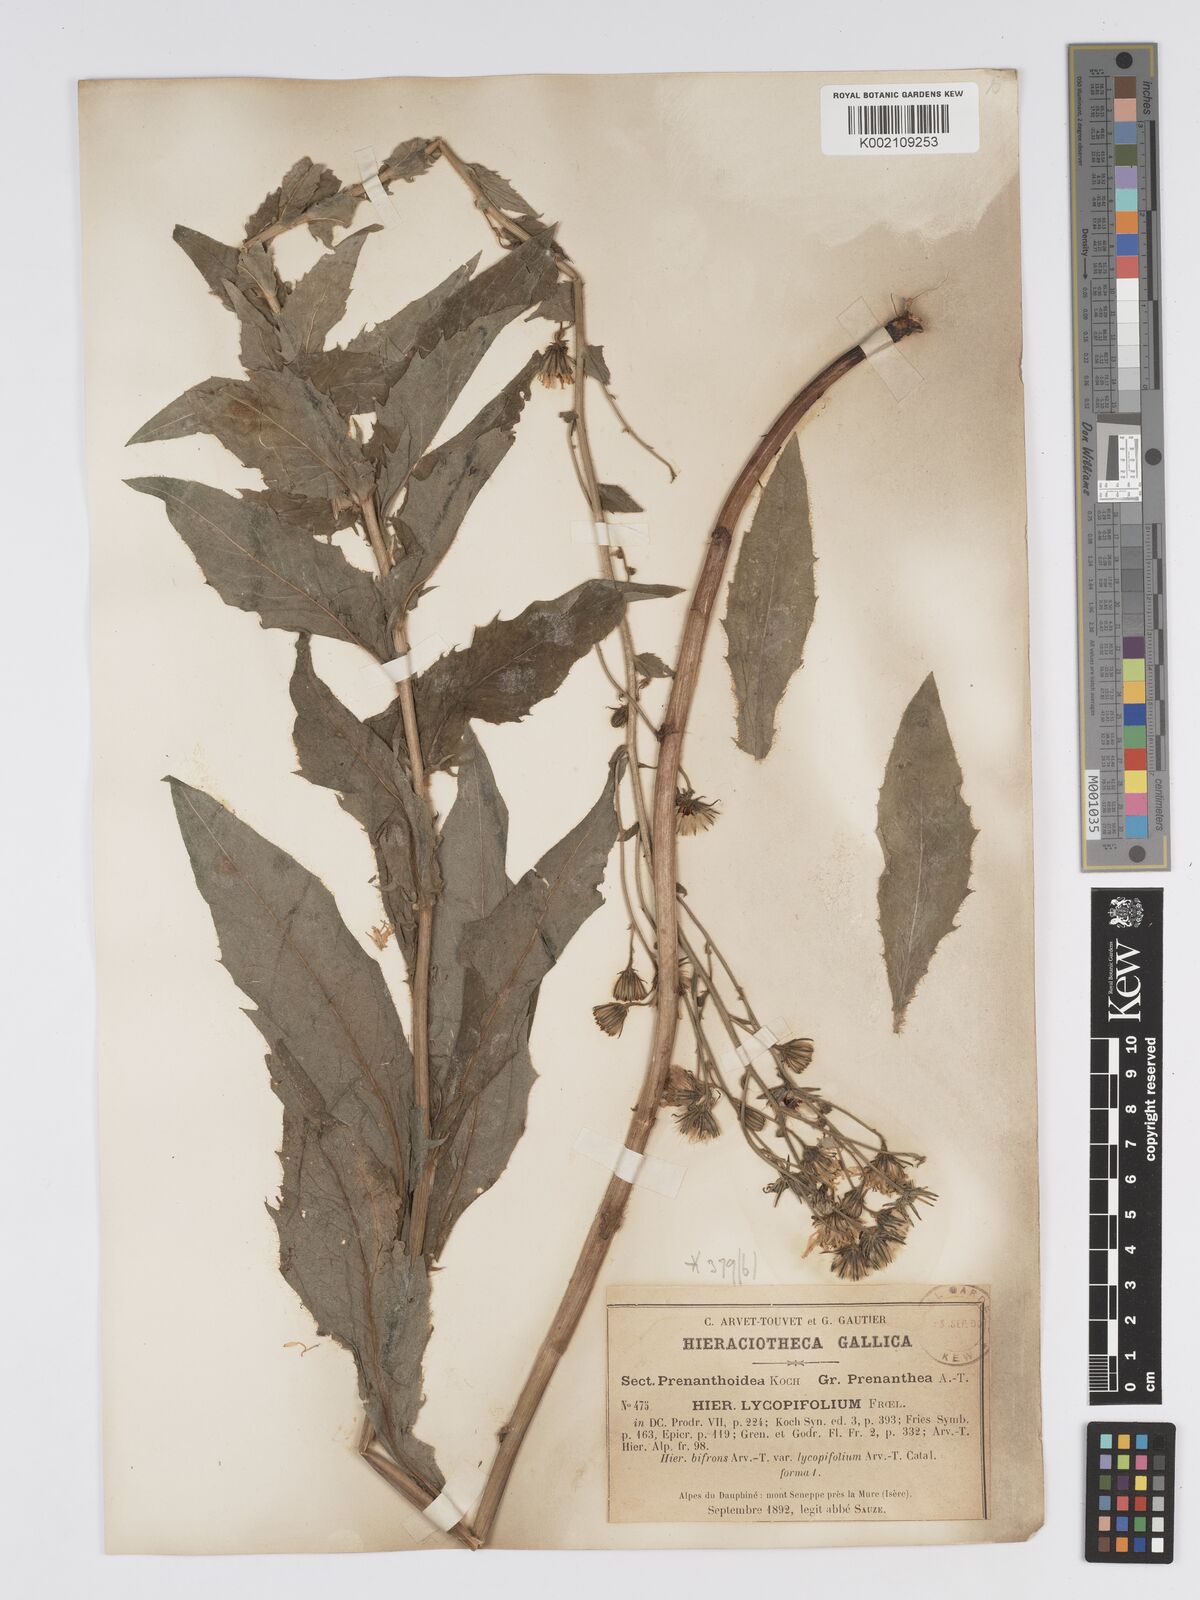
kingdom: Plantae
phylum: Tracheophyta
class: Magnoliopsida
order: Asterales
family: Asteraceae
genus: Hieracium
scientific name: Hieracium lycopifolium
